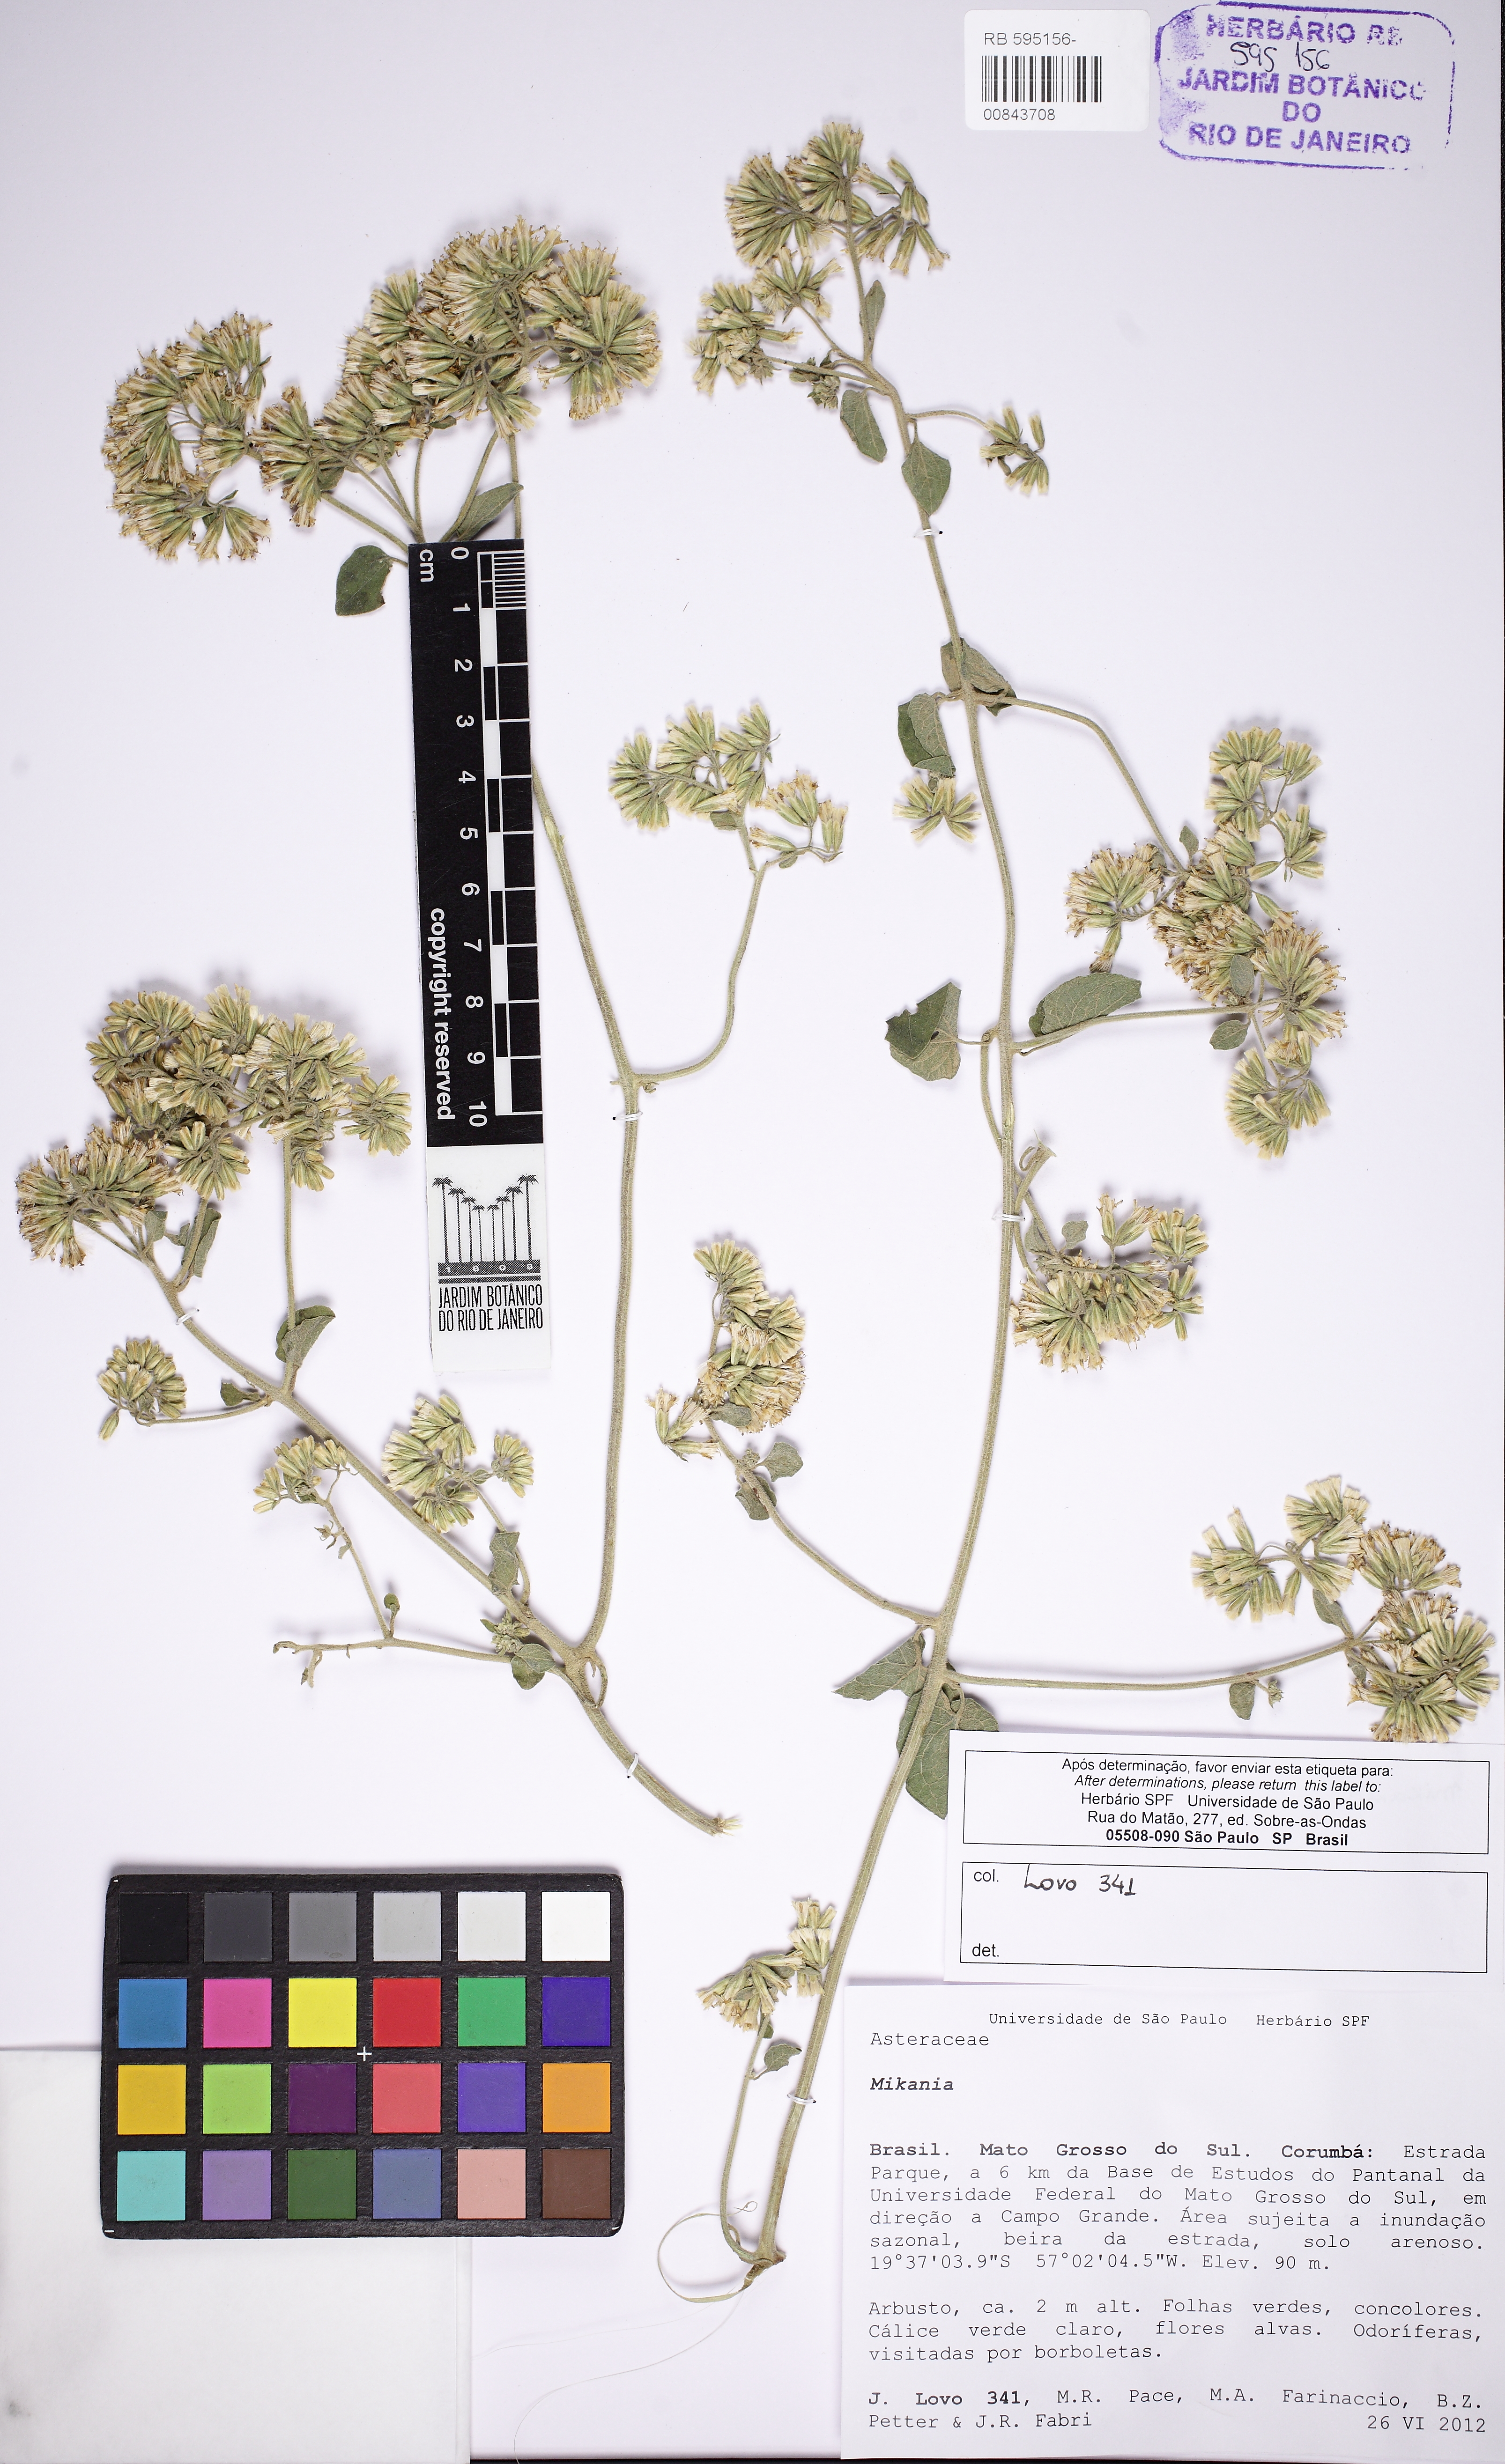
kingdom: Plantae
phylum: Tracheophyta
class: Magnoliopsida
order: Asterales
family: Asteraceae
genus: Mikania
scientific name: Mikania
